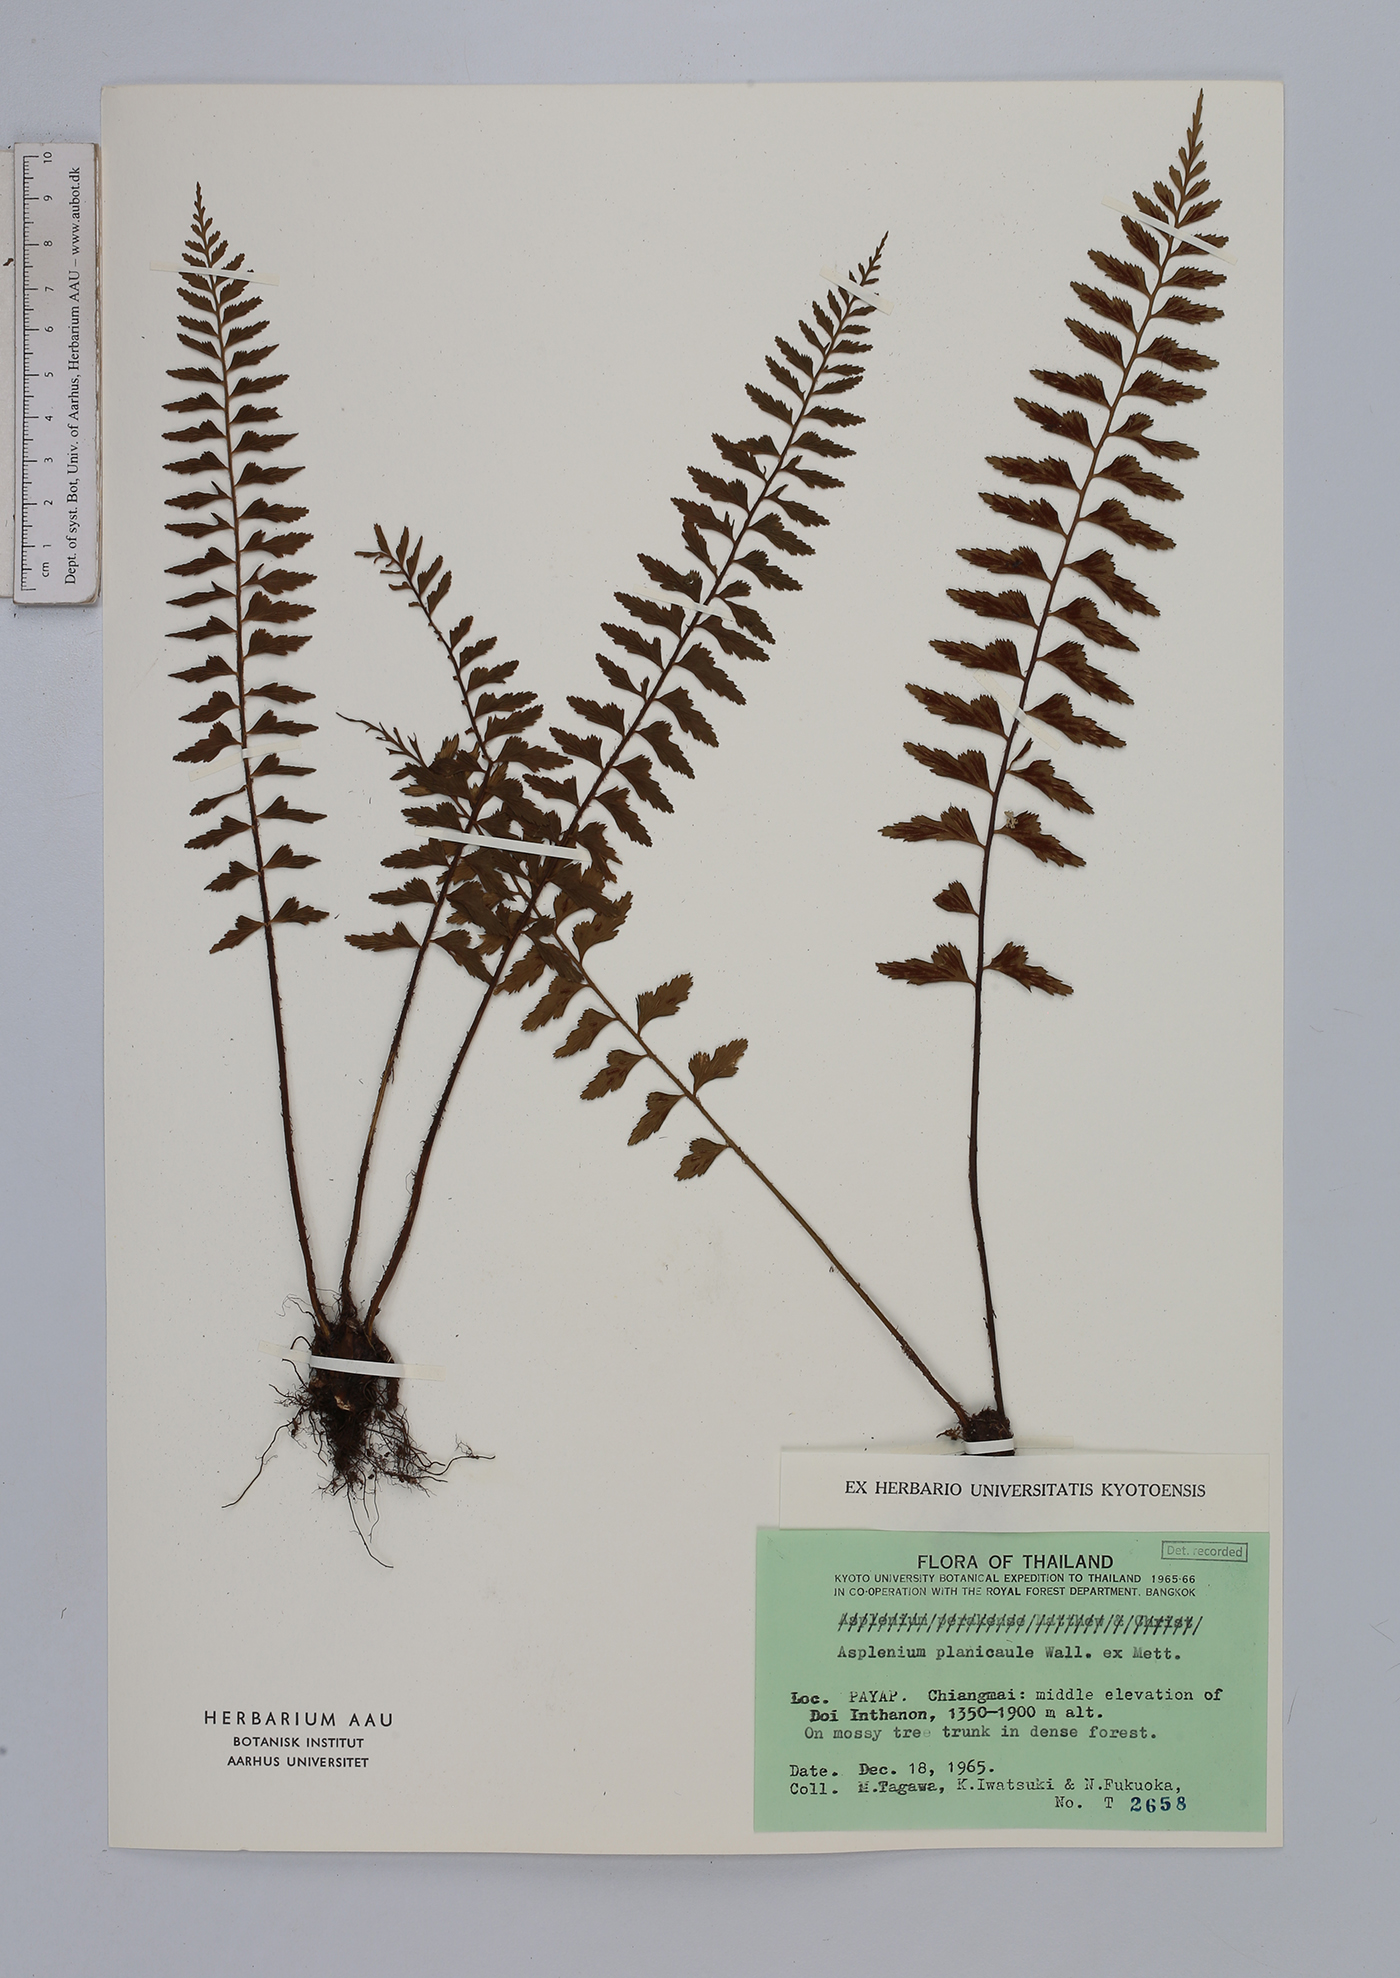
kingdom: Plantae
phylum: Tracheophyta
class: Polypodiopsida
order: Polypodiales
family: Aspleniaceae
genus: Asplenium
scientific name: Asplenium lividum
